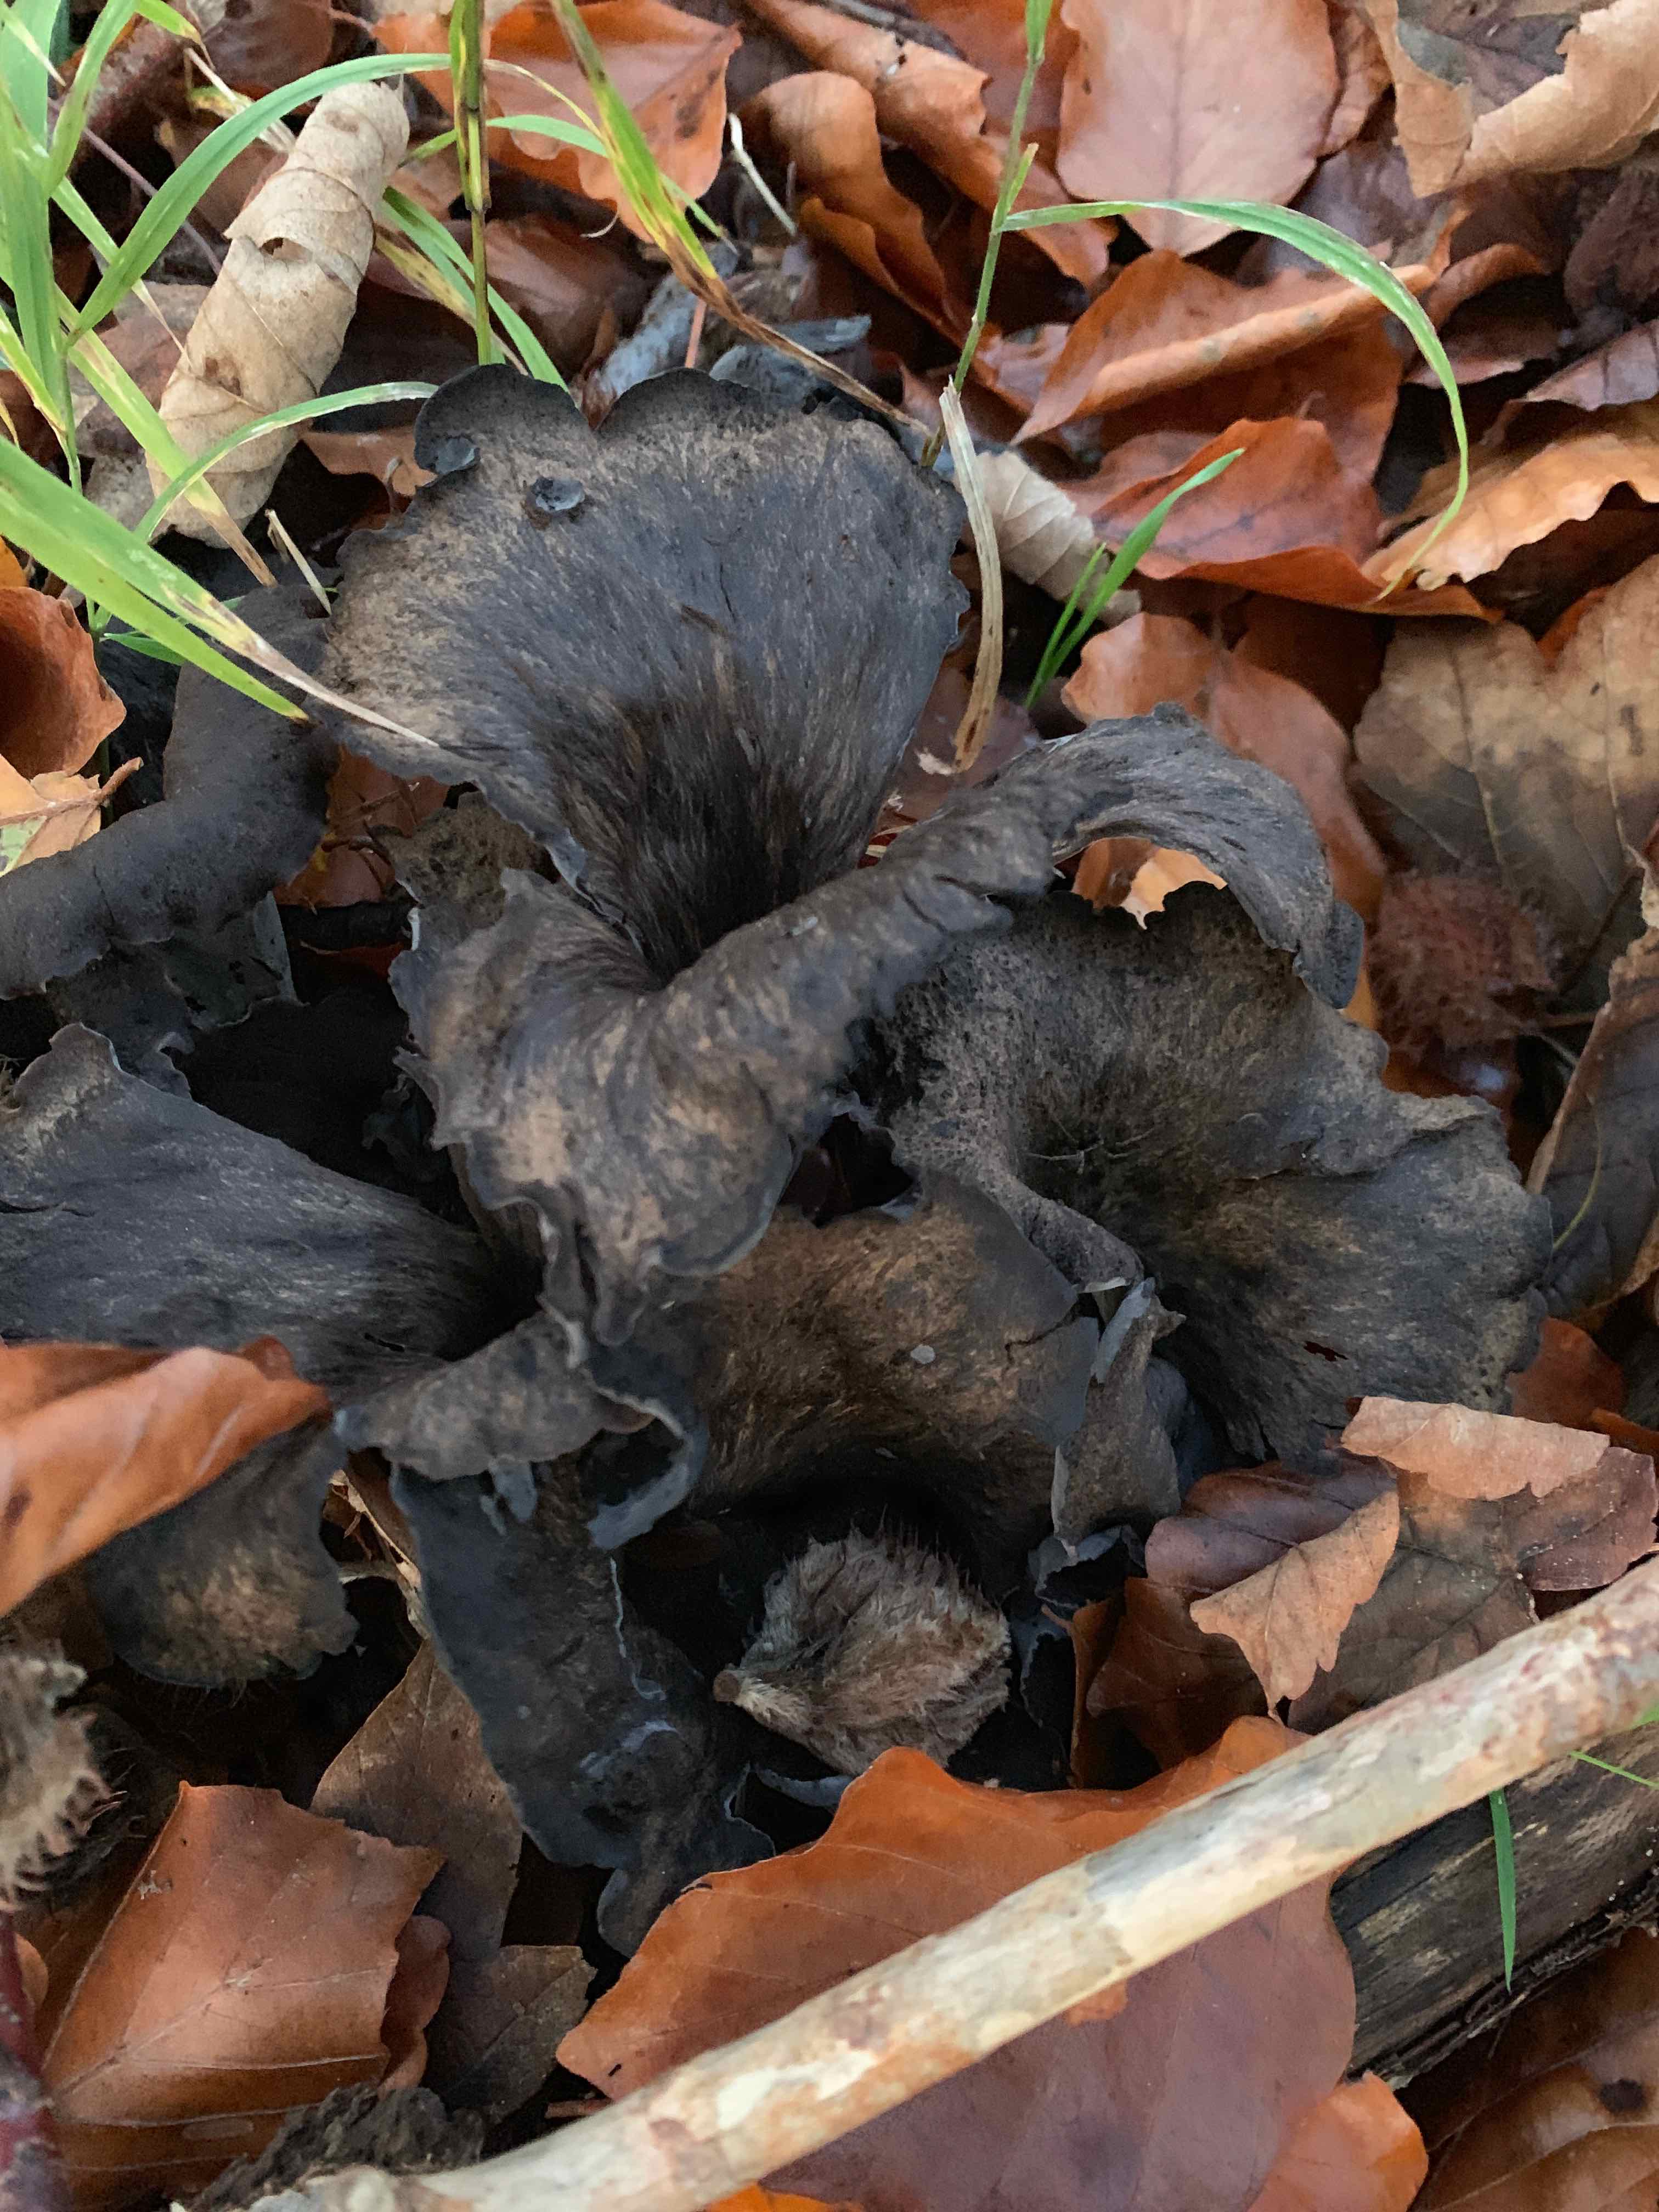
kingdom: Fungi
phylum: Basidiomycota
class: Agaricomycetes
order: Cantharellales
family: Hydnaceae
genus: Craterellus
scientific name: Craterellus cornucopioides
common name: trompetsvamp
